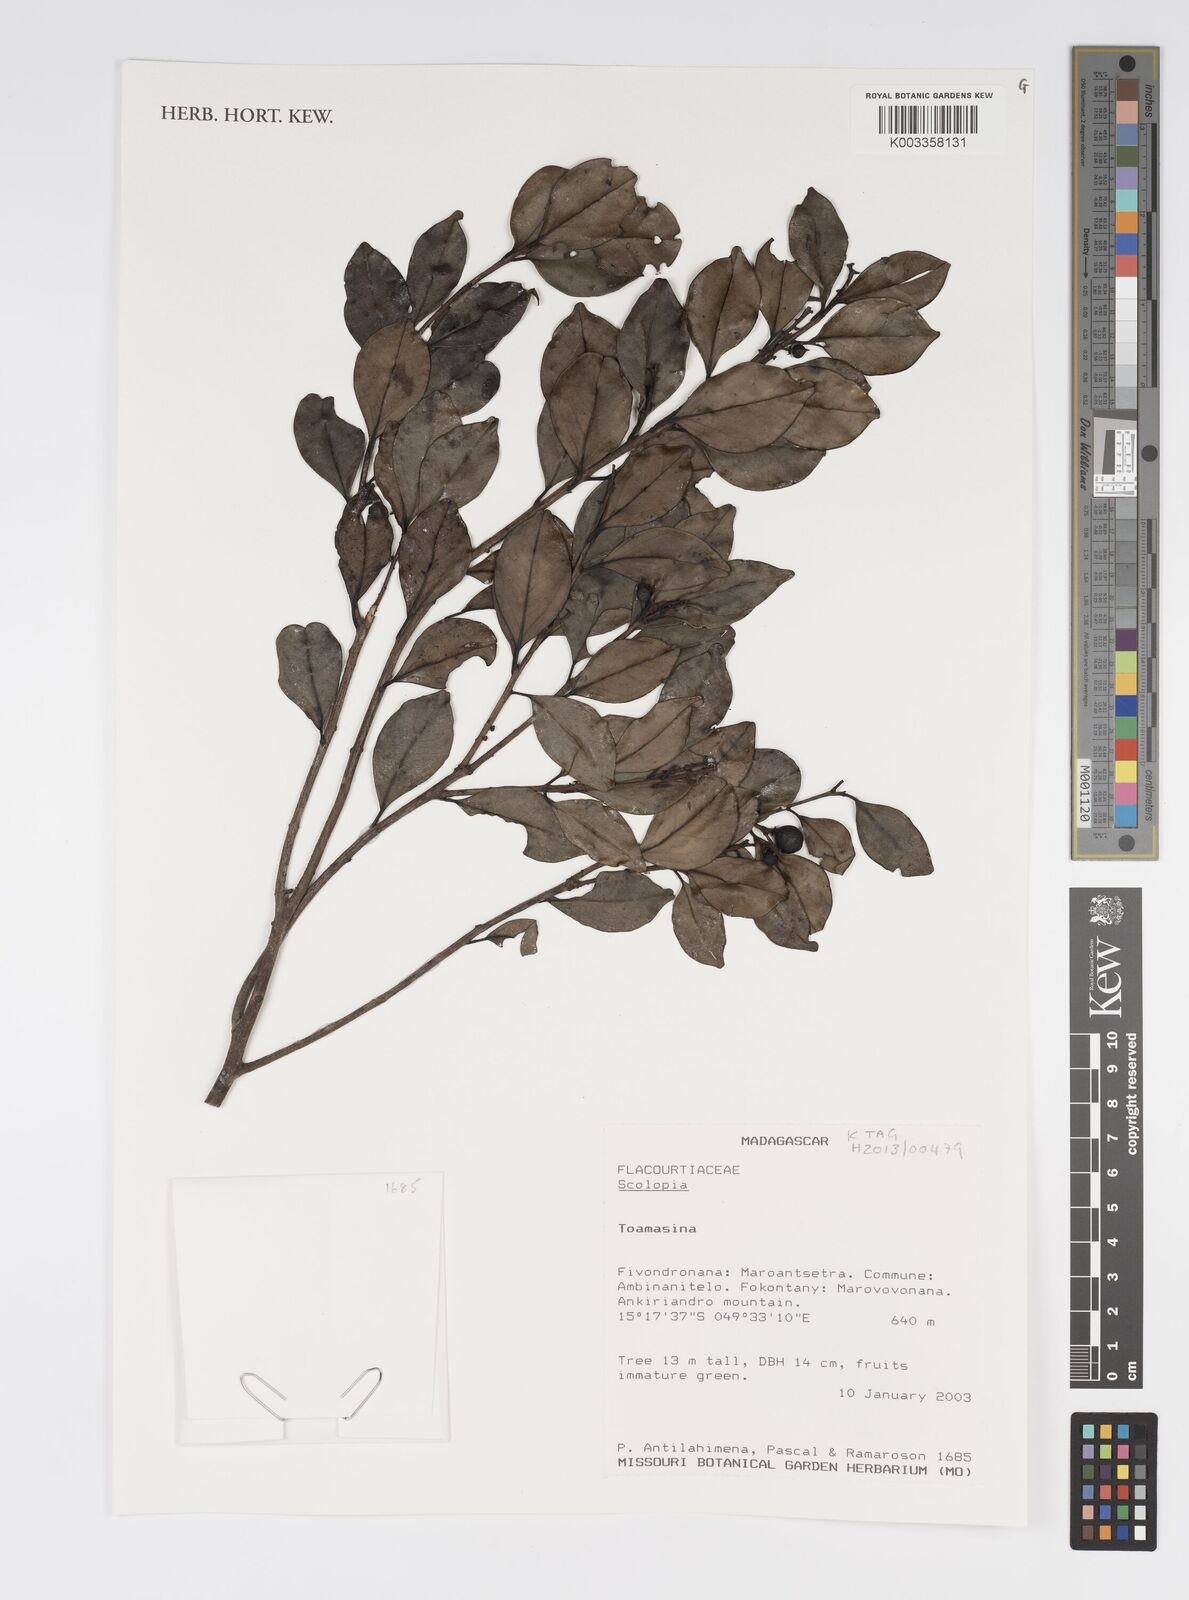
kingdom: Plantae
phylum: Tracheophyta
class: Magnoliopsida
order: Malpighiales
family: Salicaceae
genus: Scolopia
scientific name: Scolopia
